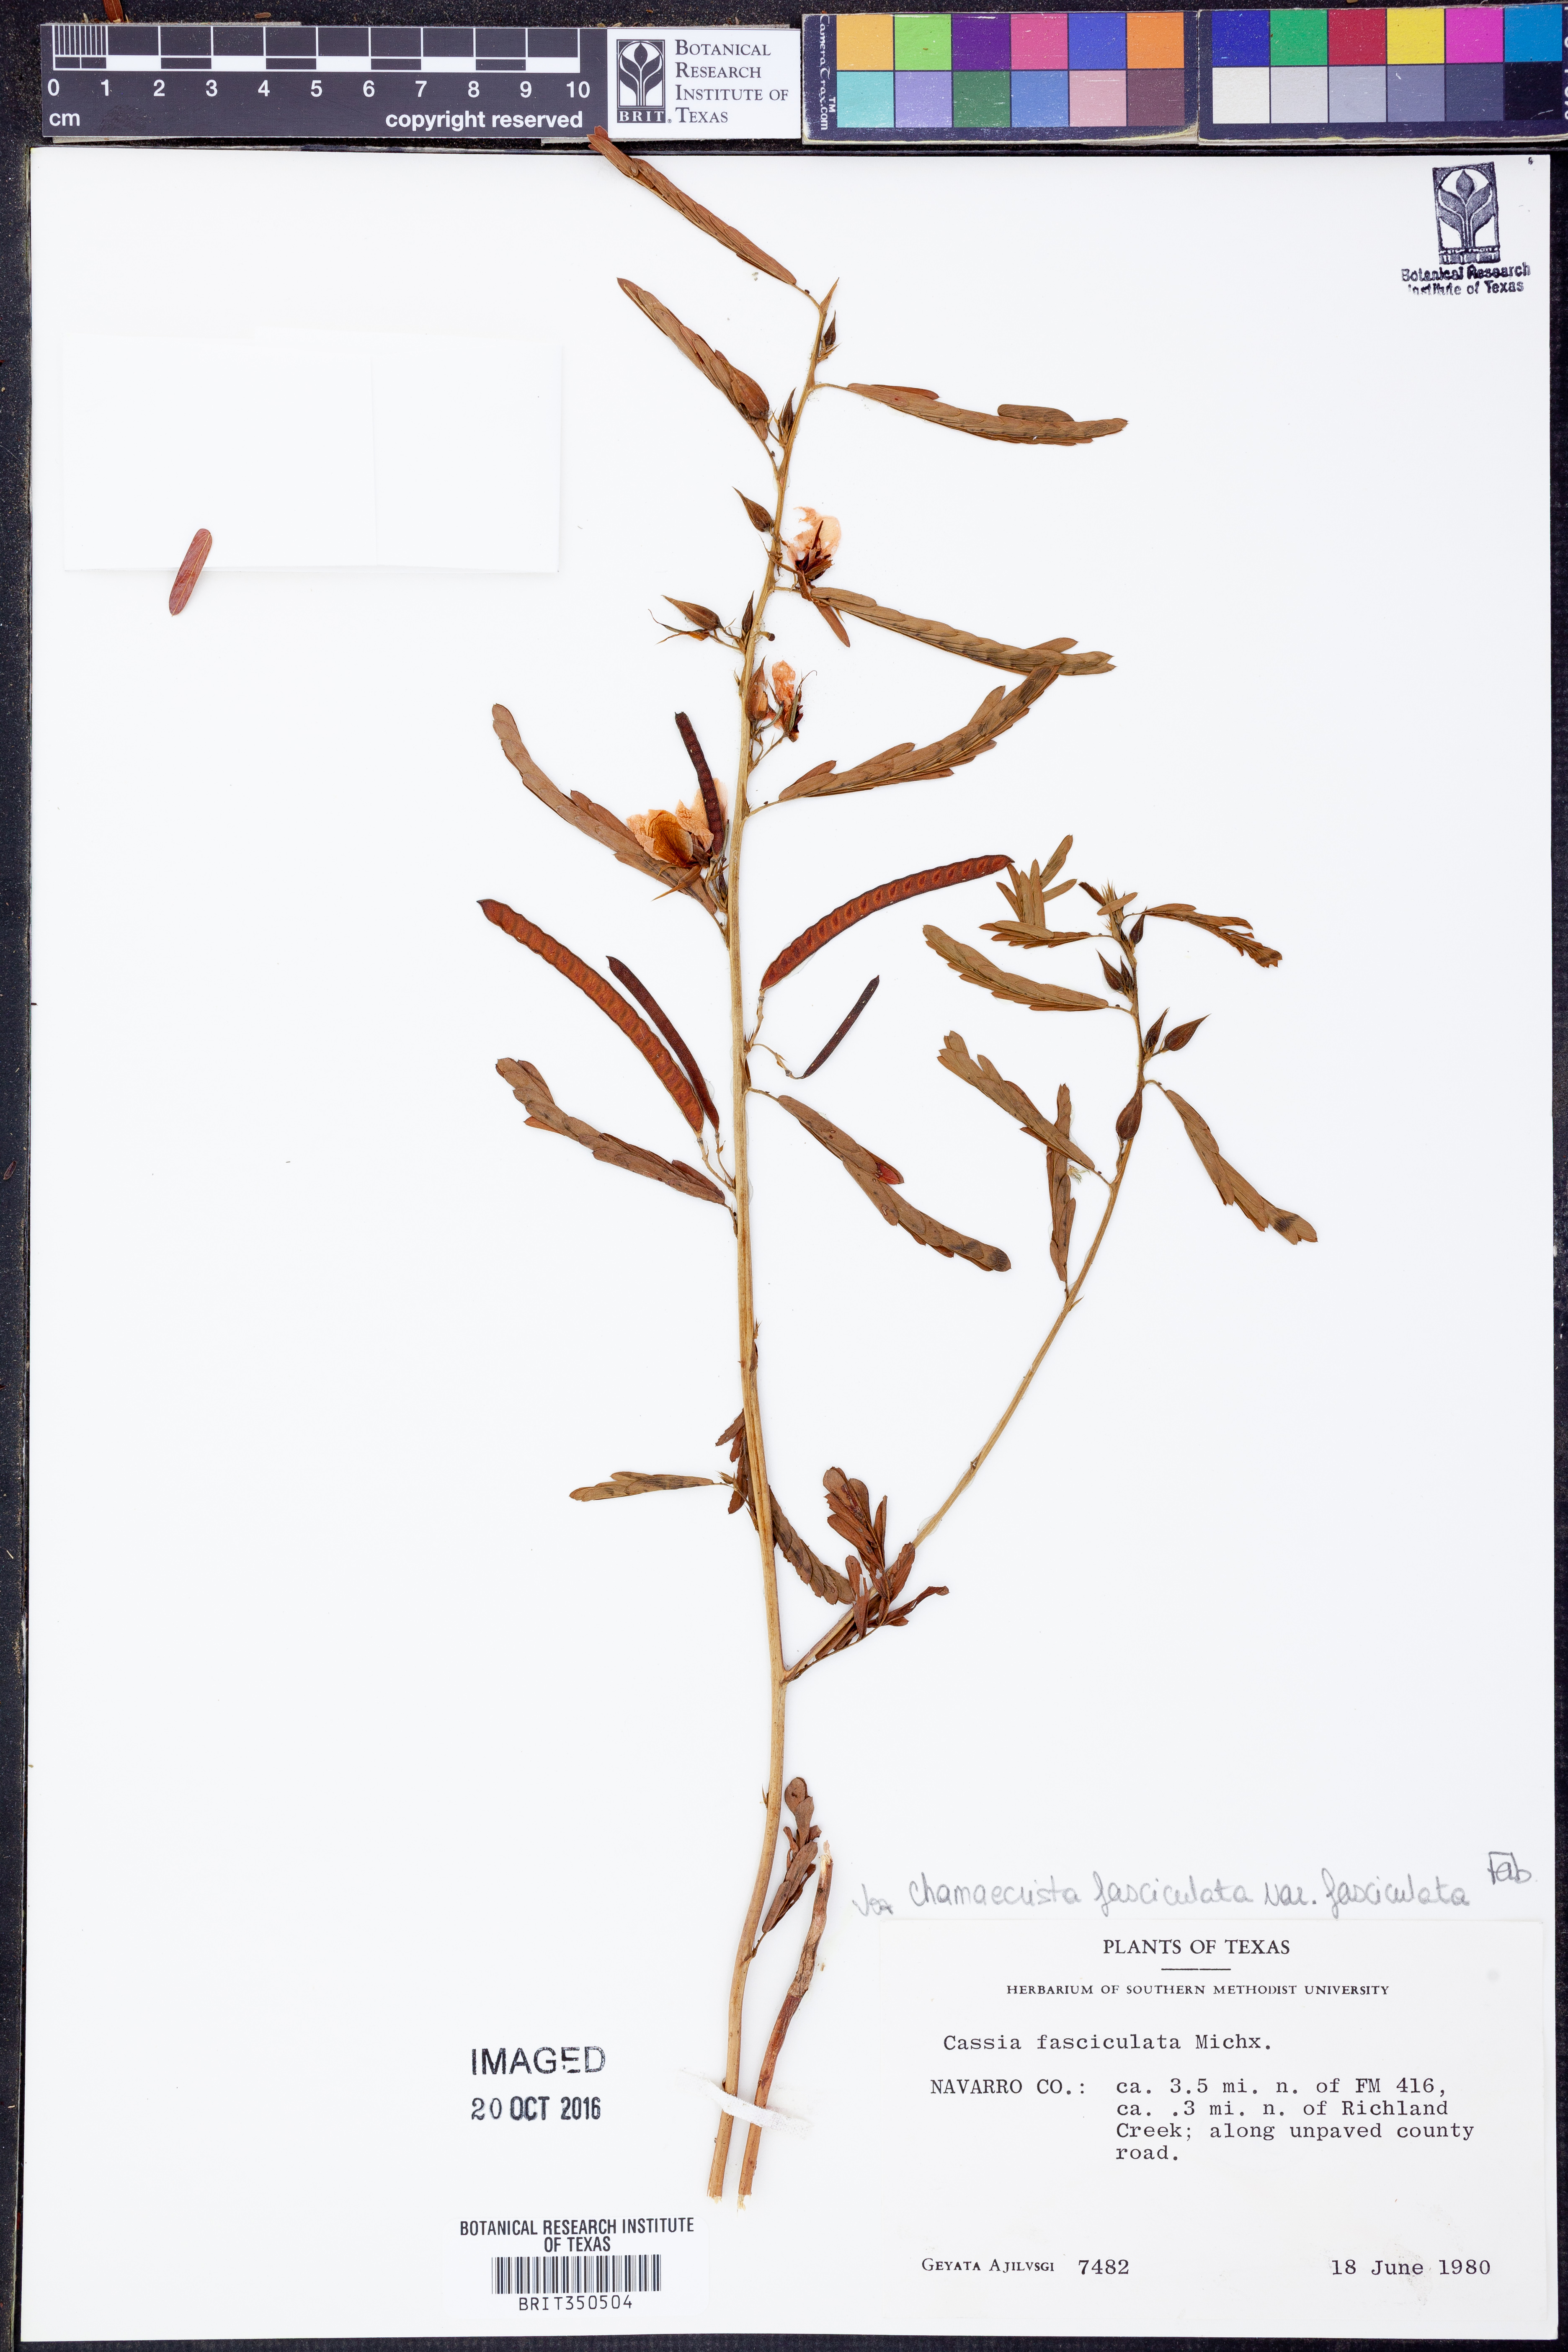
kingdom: Plantae
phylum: Tracheophyta
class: Magnoliopsida
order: Fabales
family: Fabaceae
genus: Chamaecrista
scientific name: Chamaecrista fasciculata
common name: Golden cassia
